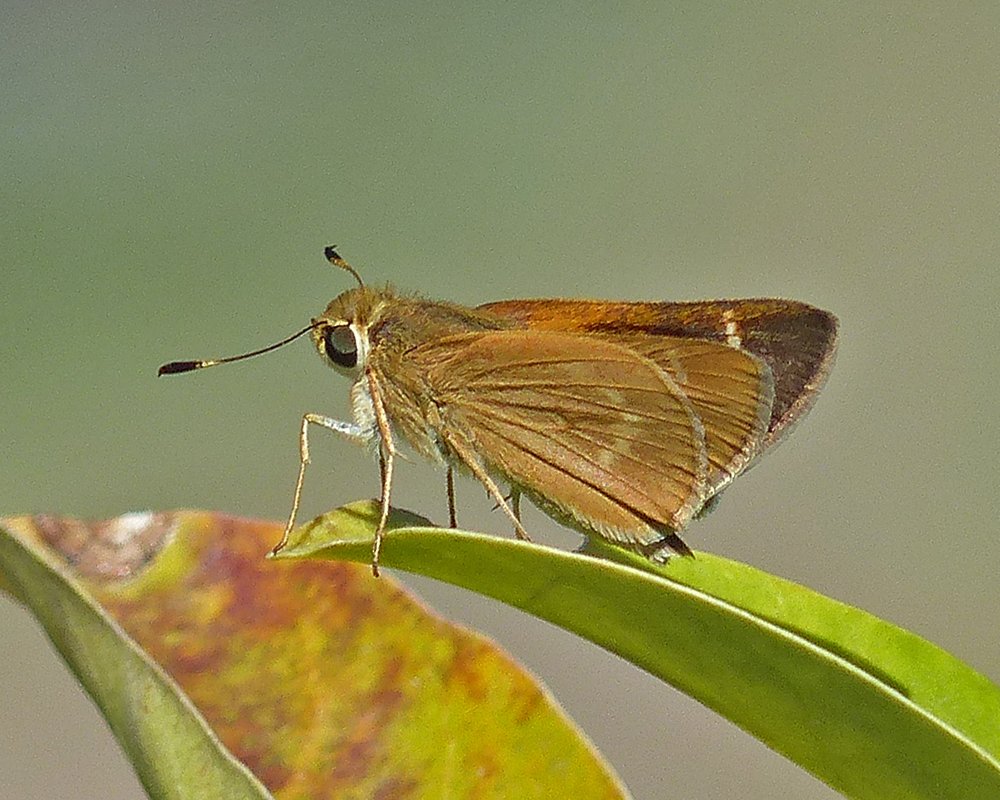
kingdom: Animalia
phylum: Arthropoda
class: Insecta
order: Lepidoptera
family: Hesperiidae
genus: Mellana
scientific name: Mellana eulogius
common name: Common Mellana
